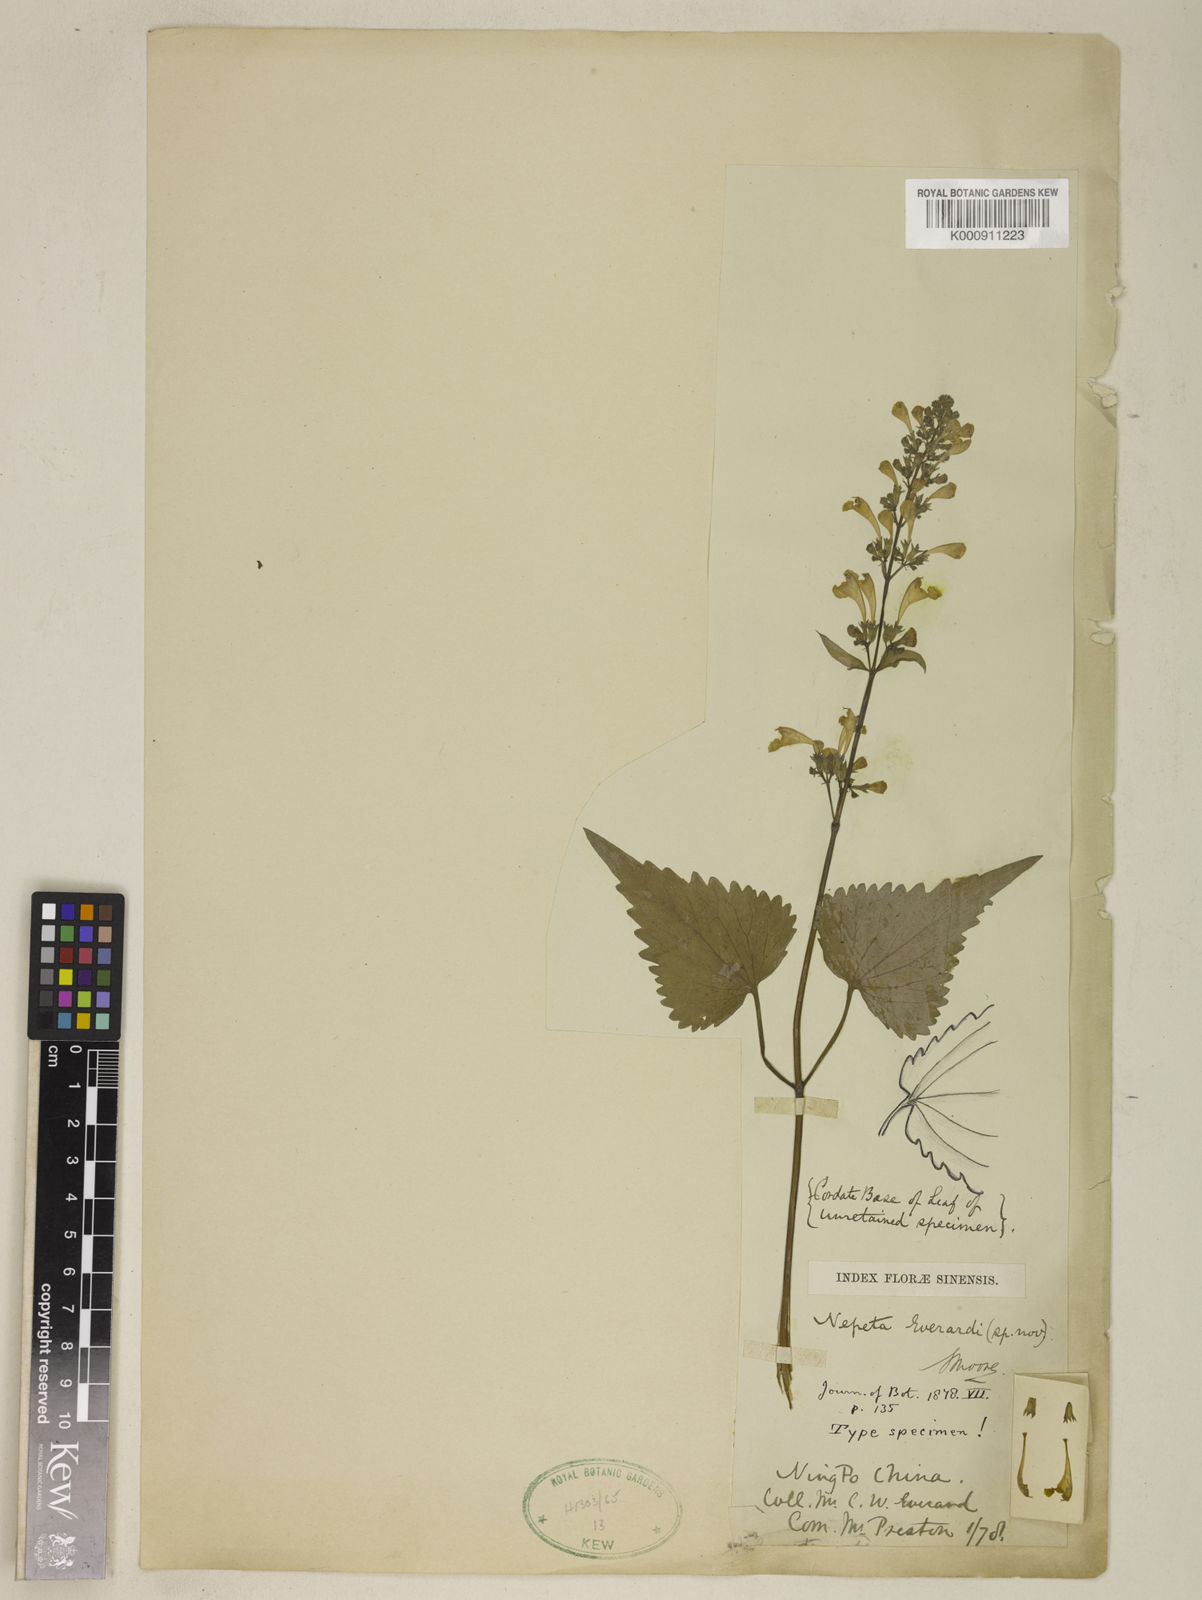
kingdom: Plantae
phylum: Tracheophyta
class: Magnoliopsida
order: Lamiales
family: Lamiaceae
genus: Nepeta
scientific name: Nepeta everardii
